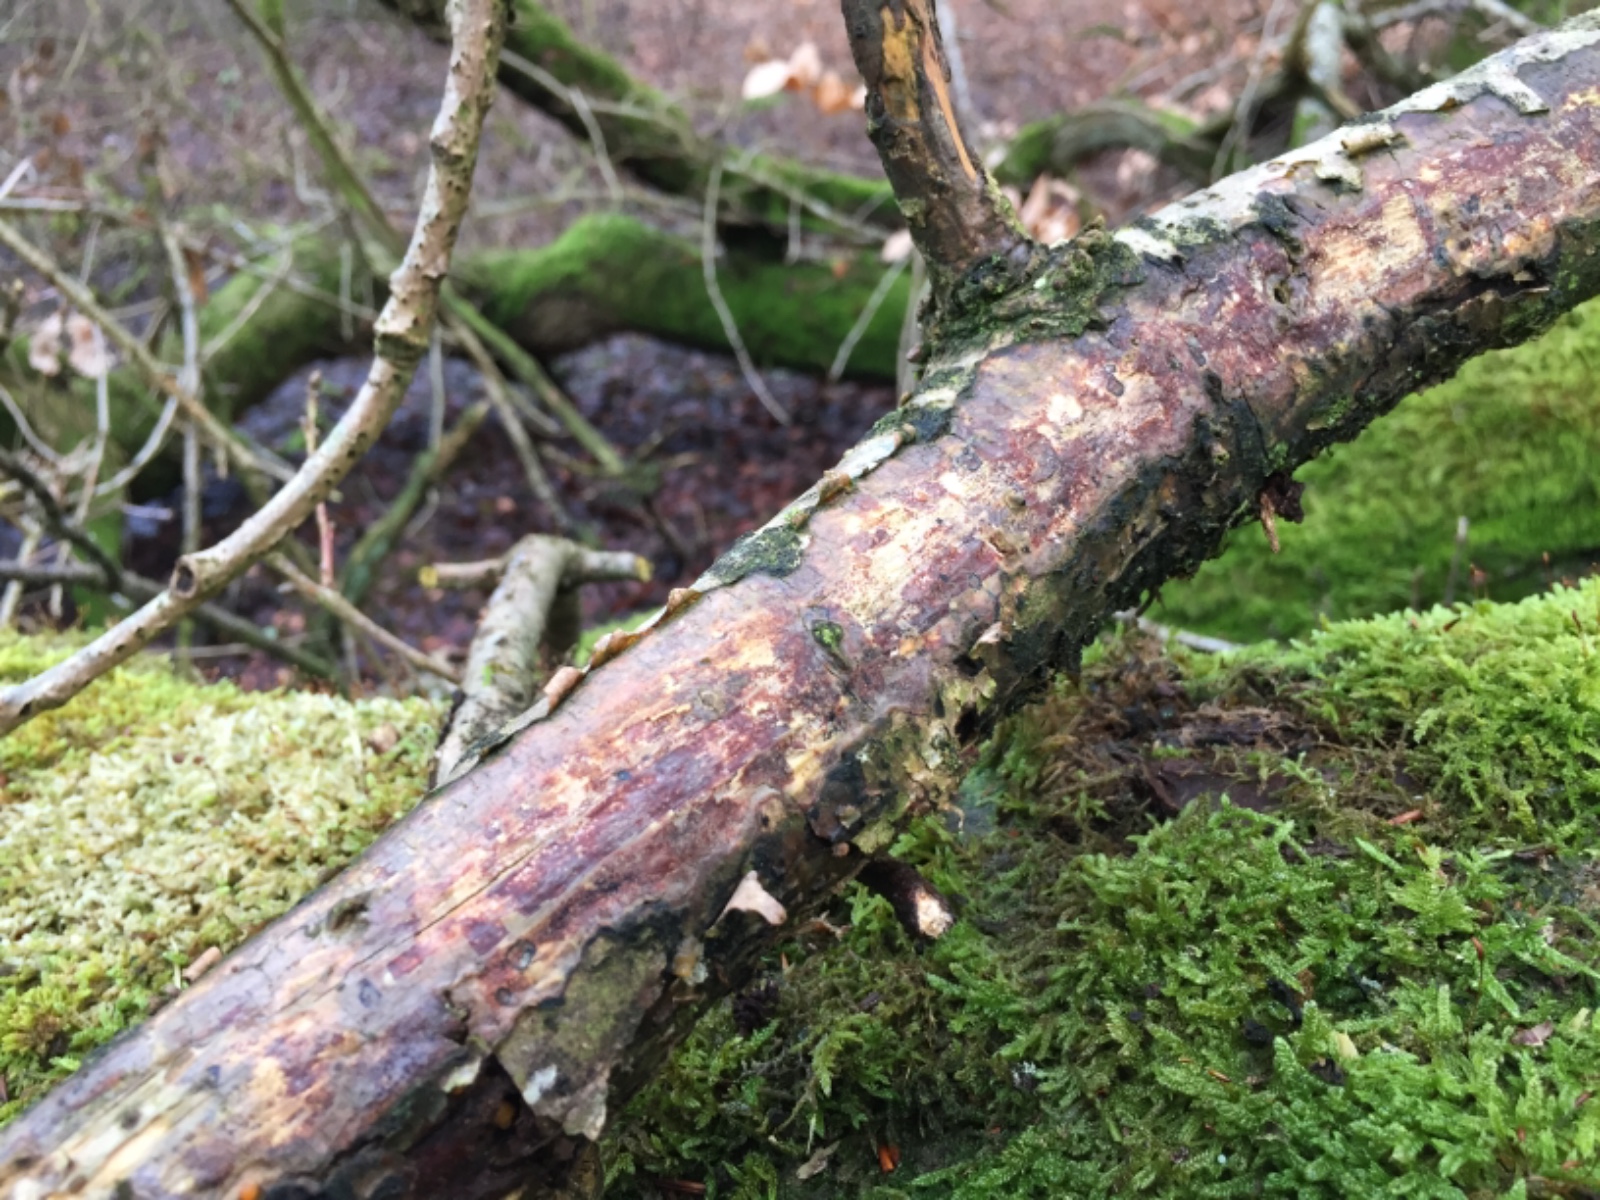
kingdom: Fungi
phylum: Basidiomycota
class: Agaricomycetes
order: Corticiales
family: Vuilleminiaceae
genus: Vuilleminia
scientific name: Vuilleminia comedens
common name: almindelig barksprænger
